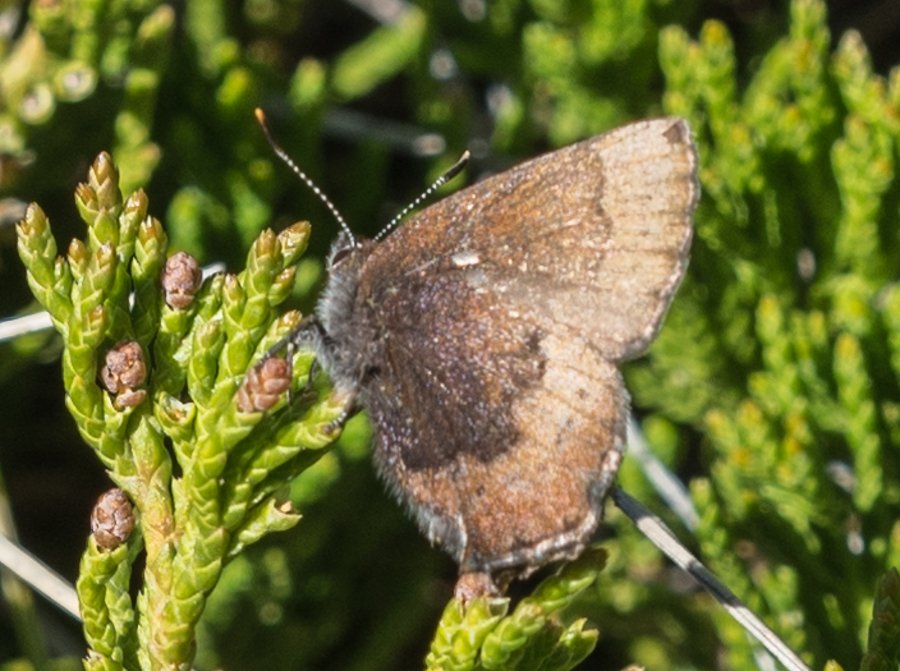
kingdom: Animalia
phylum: Arthropoda
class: Insecta
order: Lepidoptera
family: Lycaenidae
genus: Incisalia
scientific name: Incisalia irioides
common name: Brown Elfin
